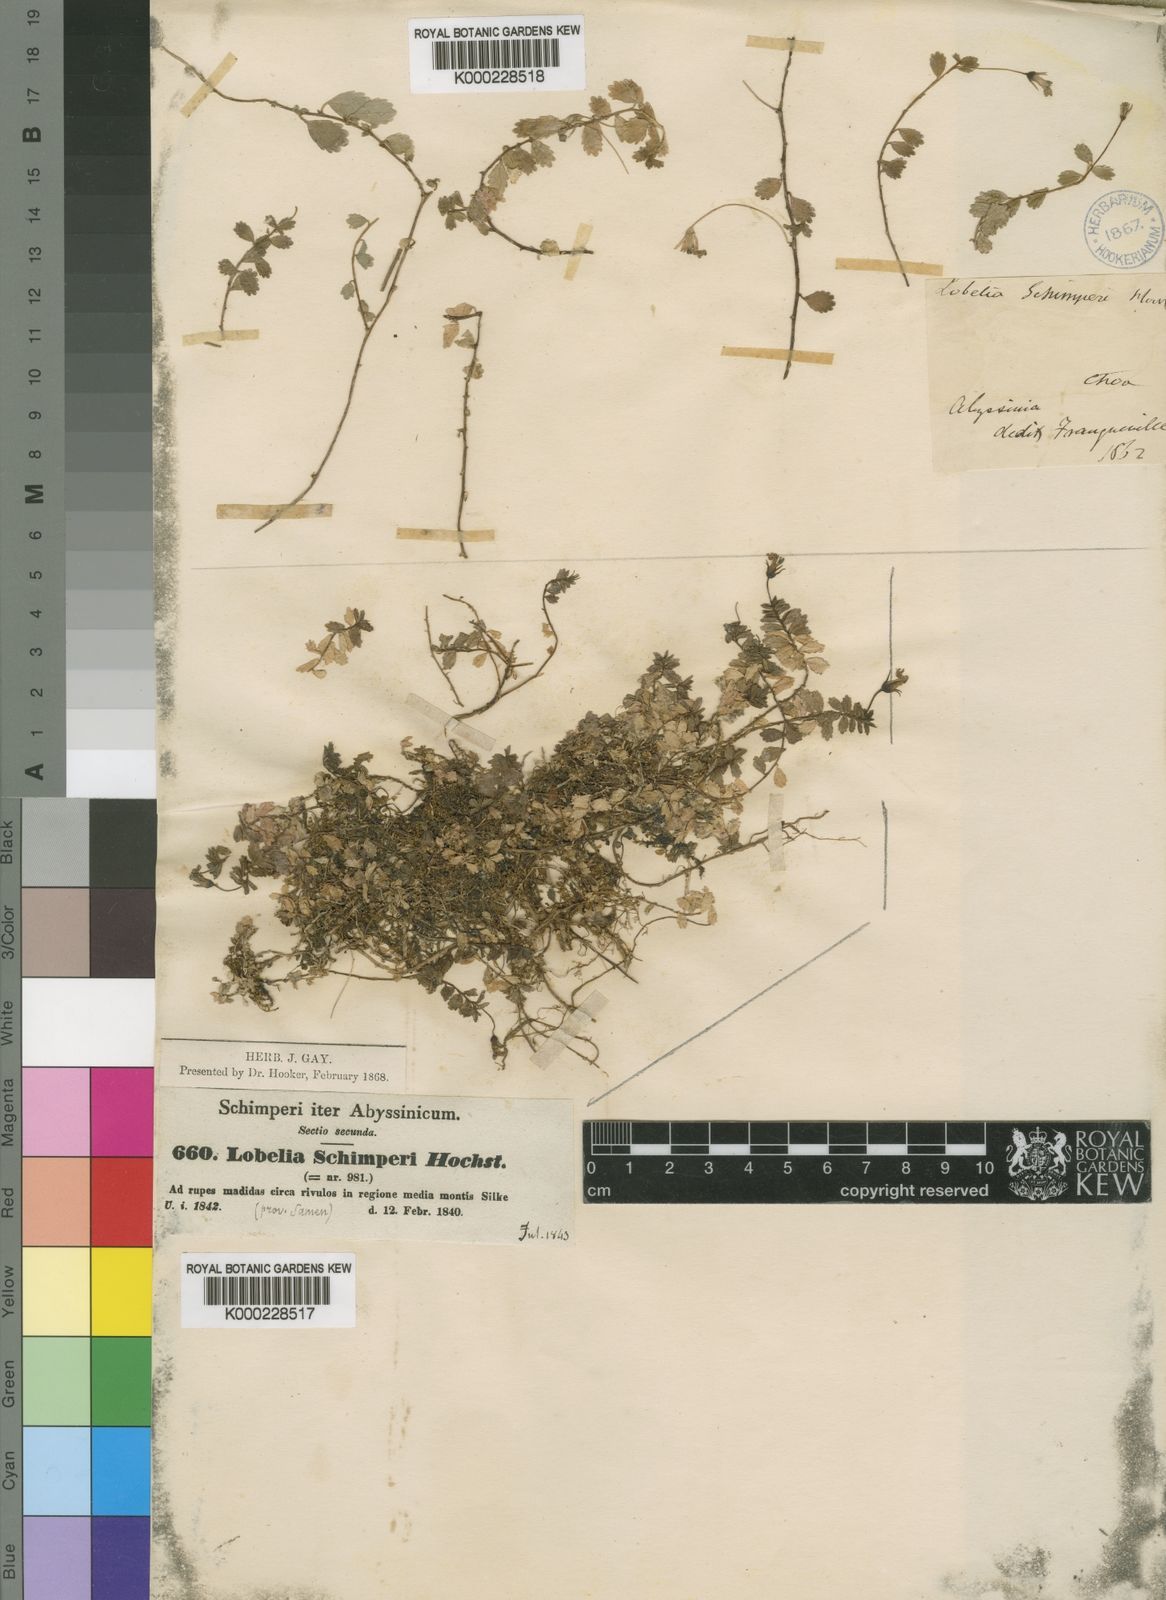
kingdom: Plantae
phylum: Tracheophyta
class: Magnoliopsida
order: Asterales
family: Campanulaceae
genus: Lobelia
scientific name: Lobelia
